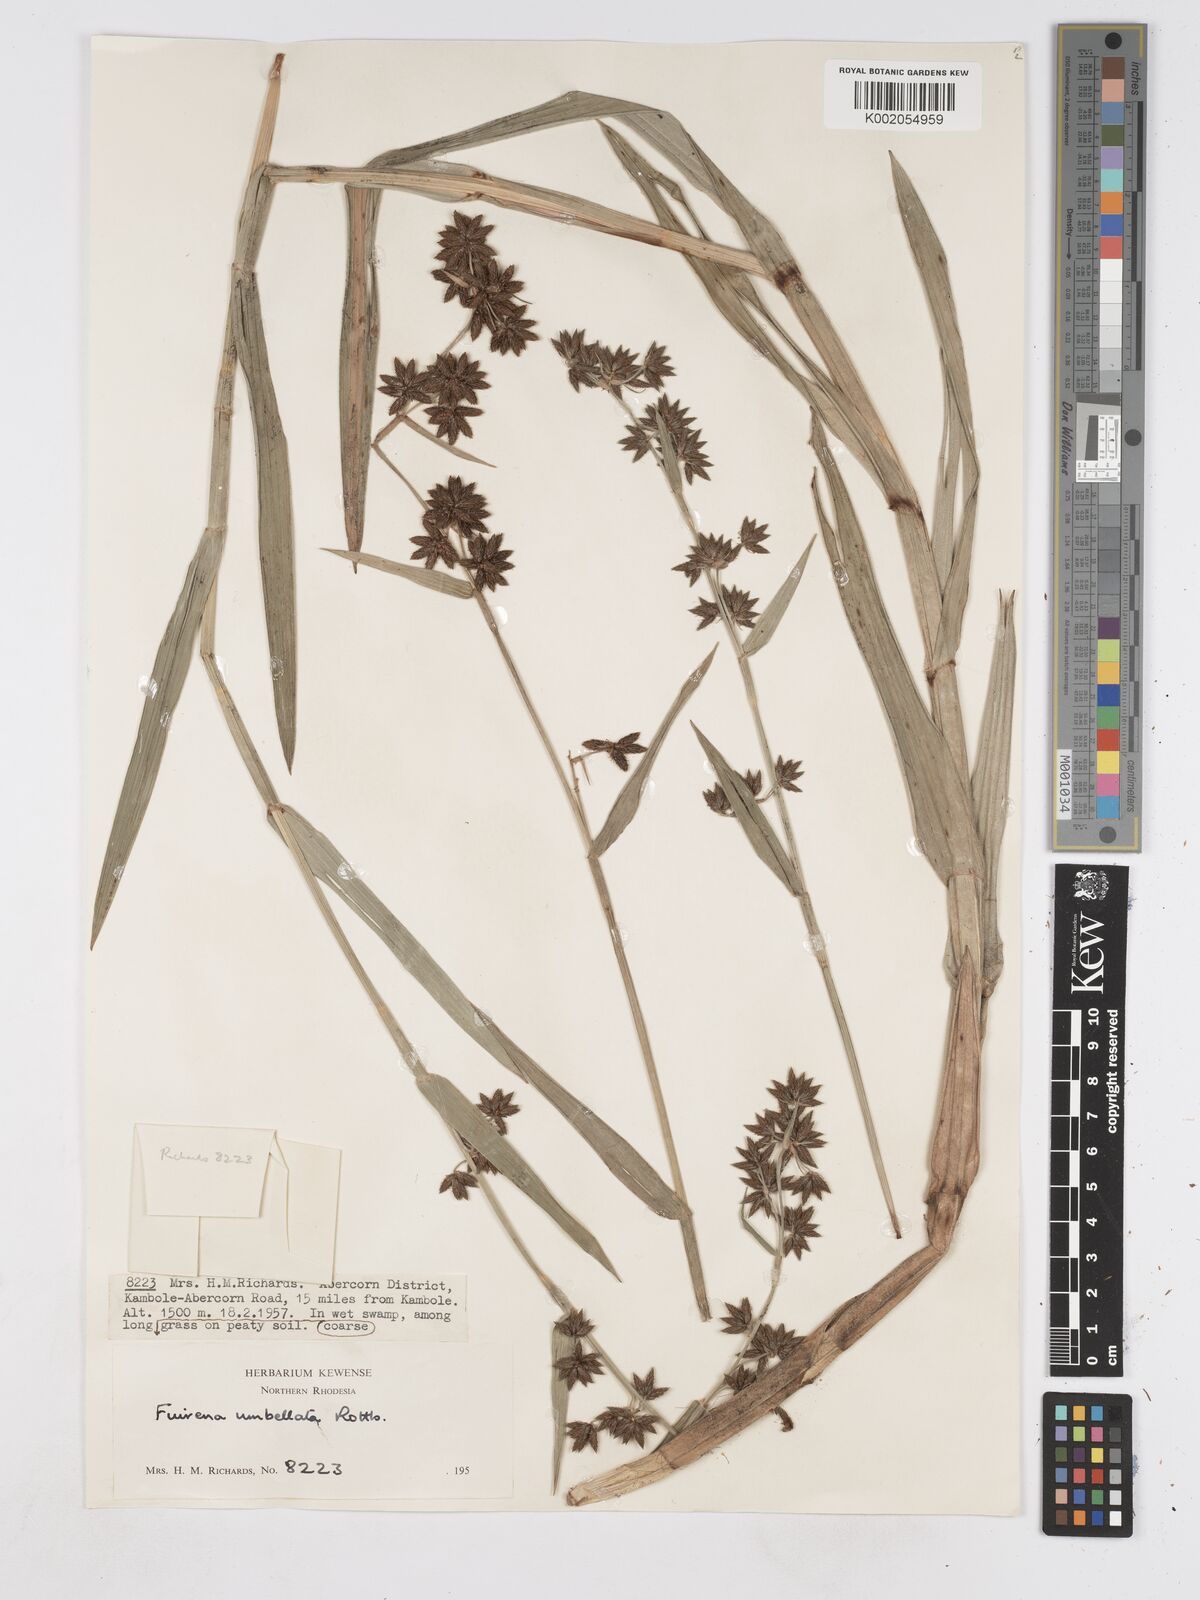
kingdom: Plantae
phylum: Tracheophyta
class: Liliopsida
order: Poales
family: Cyperaceae
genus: Fuirena
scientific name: Fuirena umbellata
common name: Yefen
